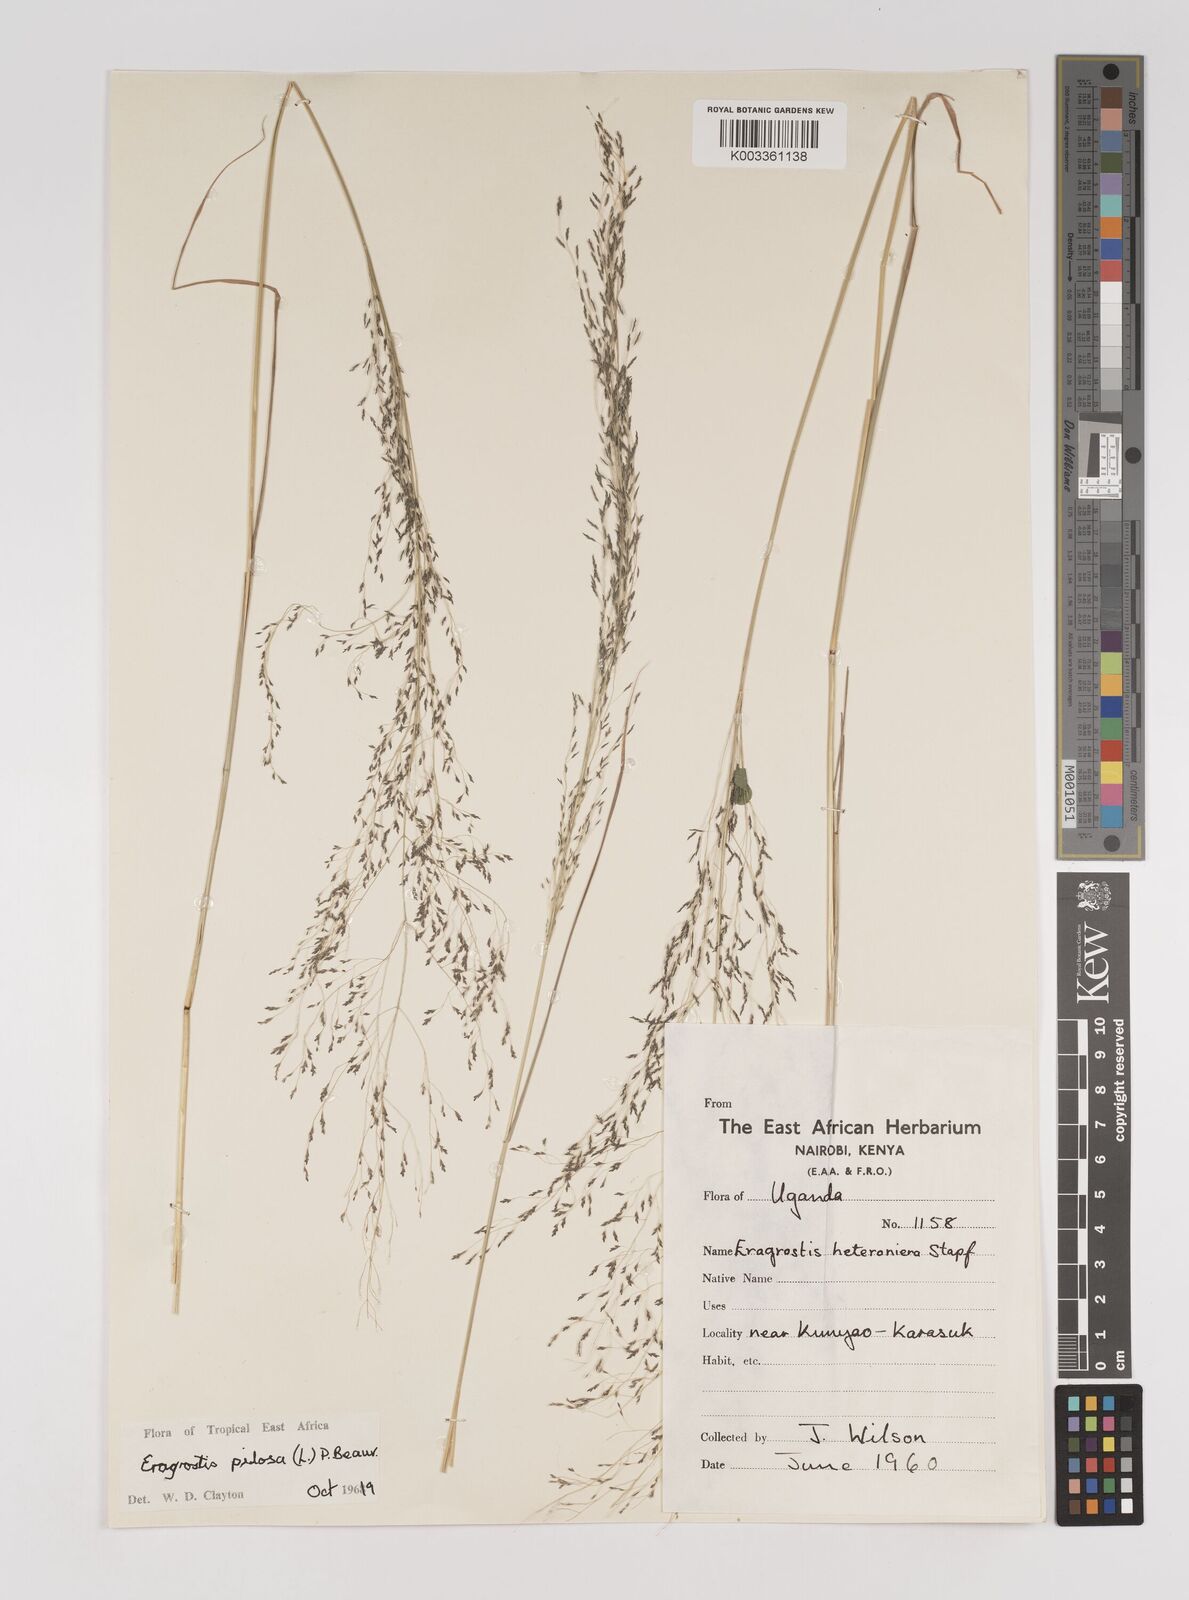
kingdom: Plantae
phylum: Tracheophyta
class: Liliopsida
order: Poales
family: Poaceae
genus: Eragrostis
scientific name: Eragrostis pilosa
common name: Indian lovegrass
